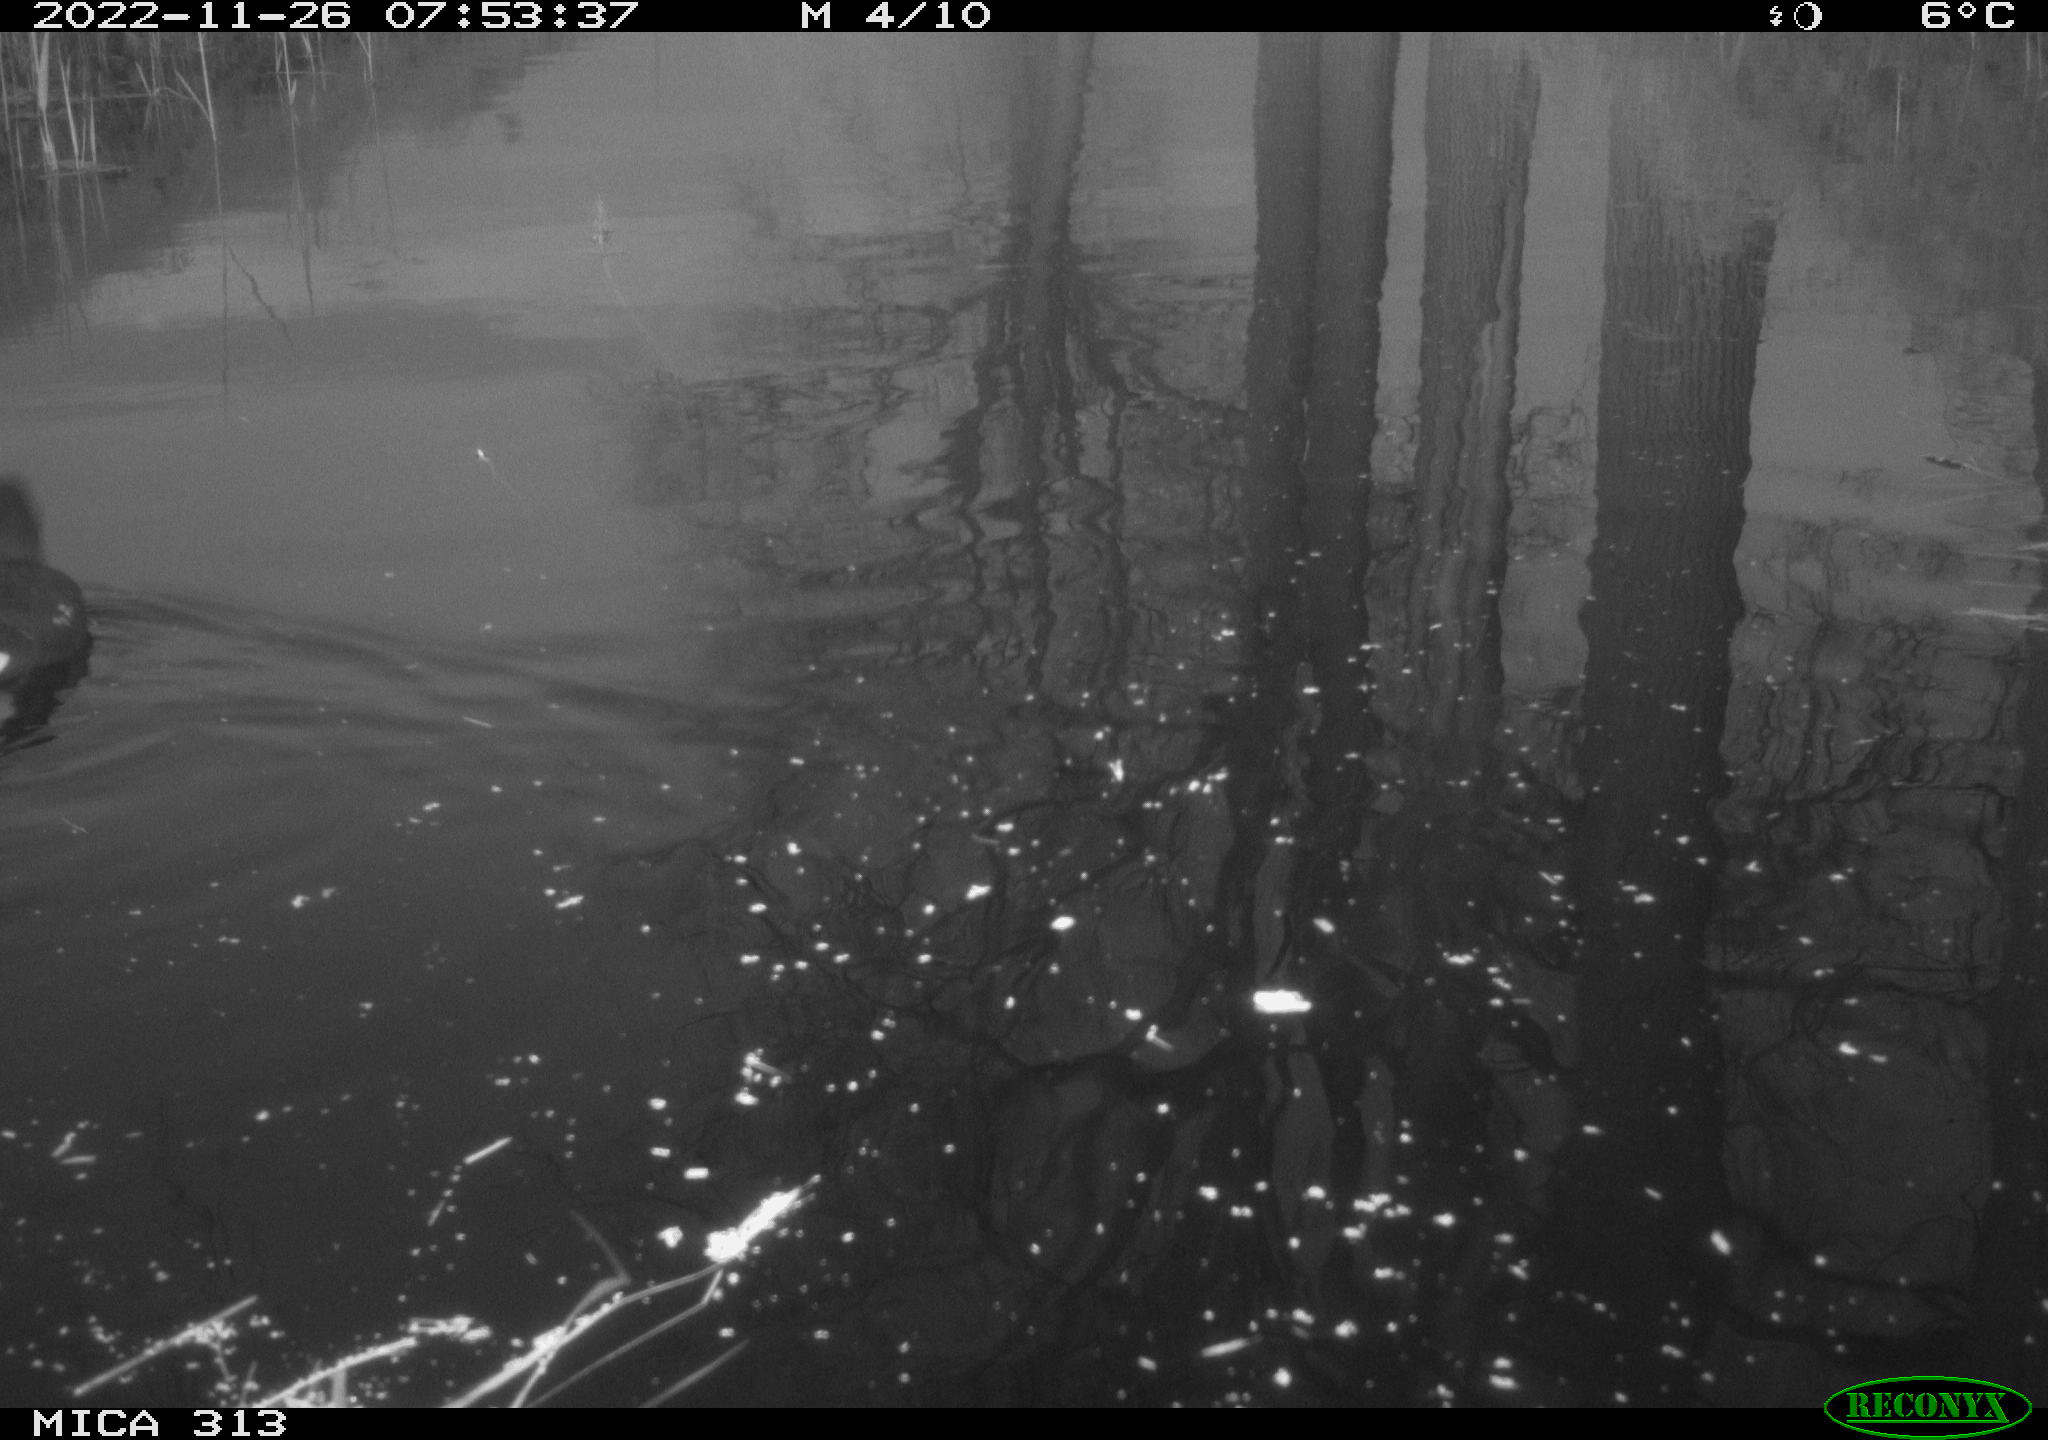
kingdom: Animalia
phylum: Chordata
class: Aves
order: Gruiformes
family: Rallidae
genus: Gallinula
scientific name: Gallinula chloropus
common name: Common moorhen
